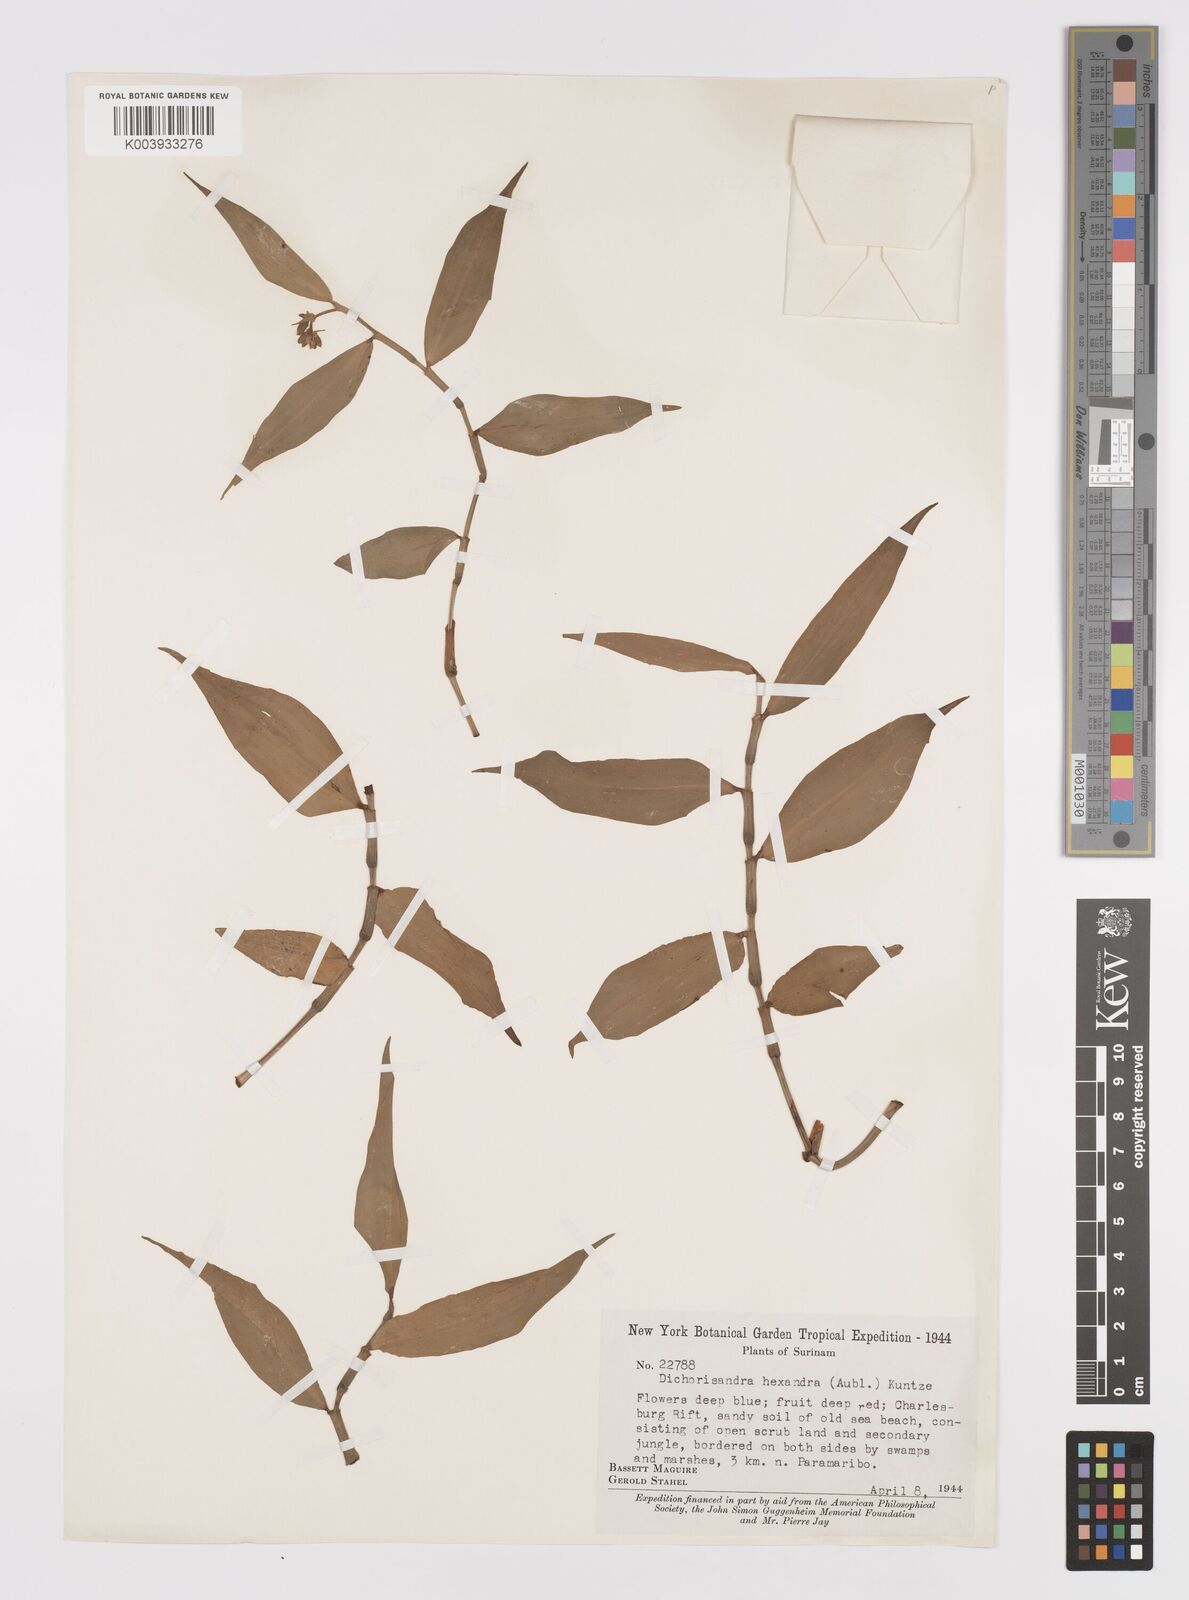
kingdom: Plantae
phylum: Tracheophyta
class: Liliopsida
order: Commelinales
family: Commelinaceae
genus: Dichorisandra
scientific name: Dichorisandra hexandra
